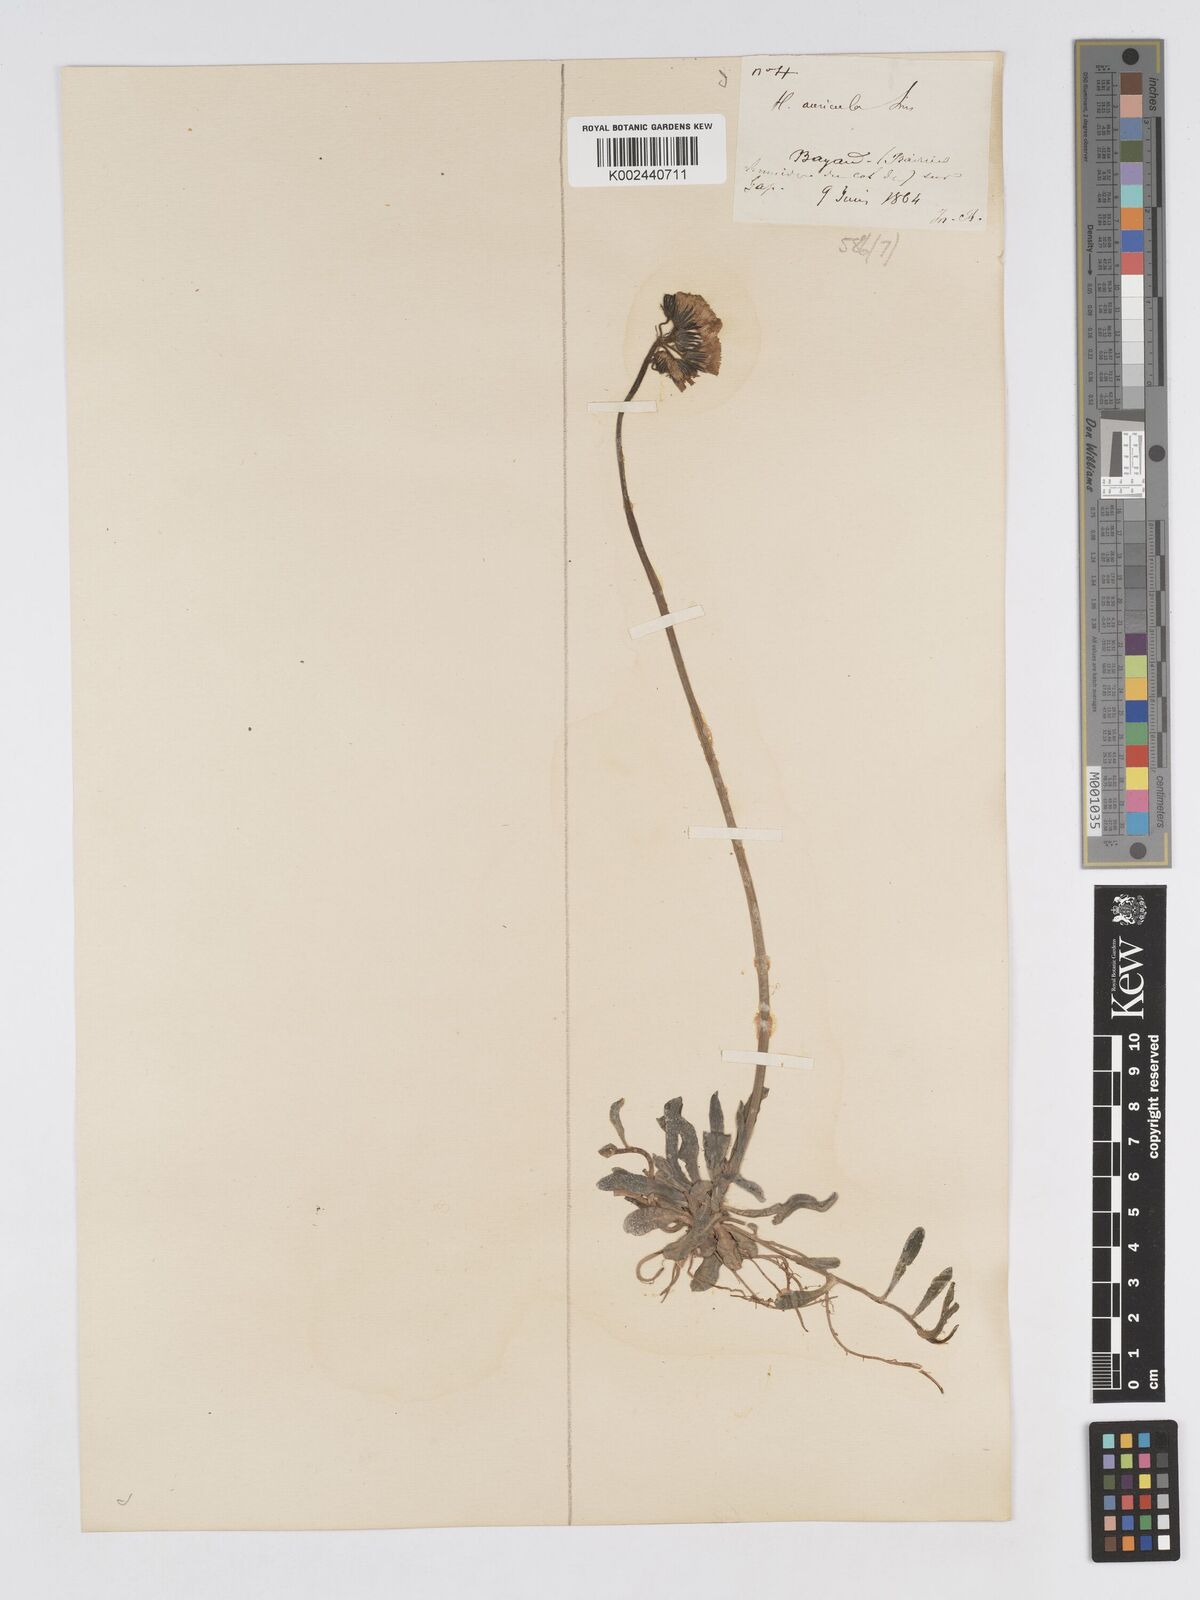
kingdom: Plantae
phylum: Tracheophyta
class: Magnoliopsida
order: Asterales
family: Asteraceae
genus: Pilosella
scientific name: Pilosella floribunda
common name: Glaucous hawkweed
